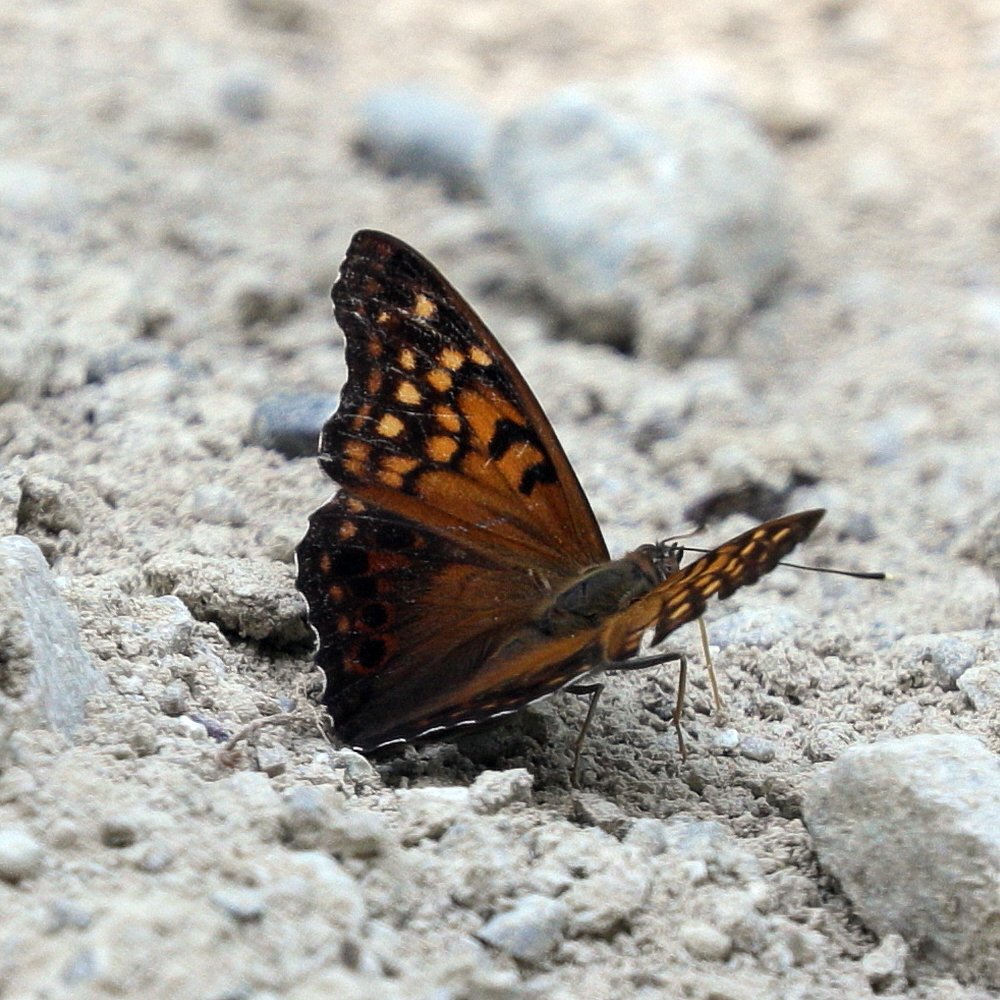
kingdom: Animalia
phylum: Arthropoda
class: Insecta
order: Lepidoptera
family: Nymphalidae
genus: Asterocampa
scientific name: Asterocampa clyton
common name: Tawny Emperor
